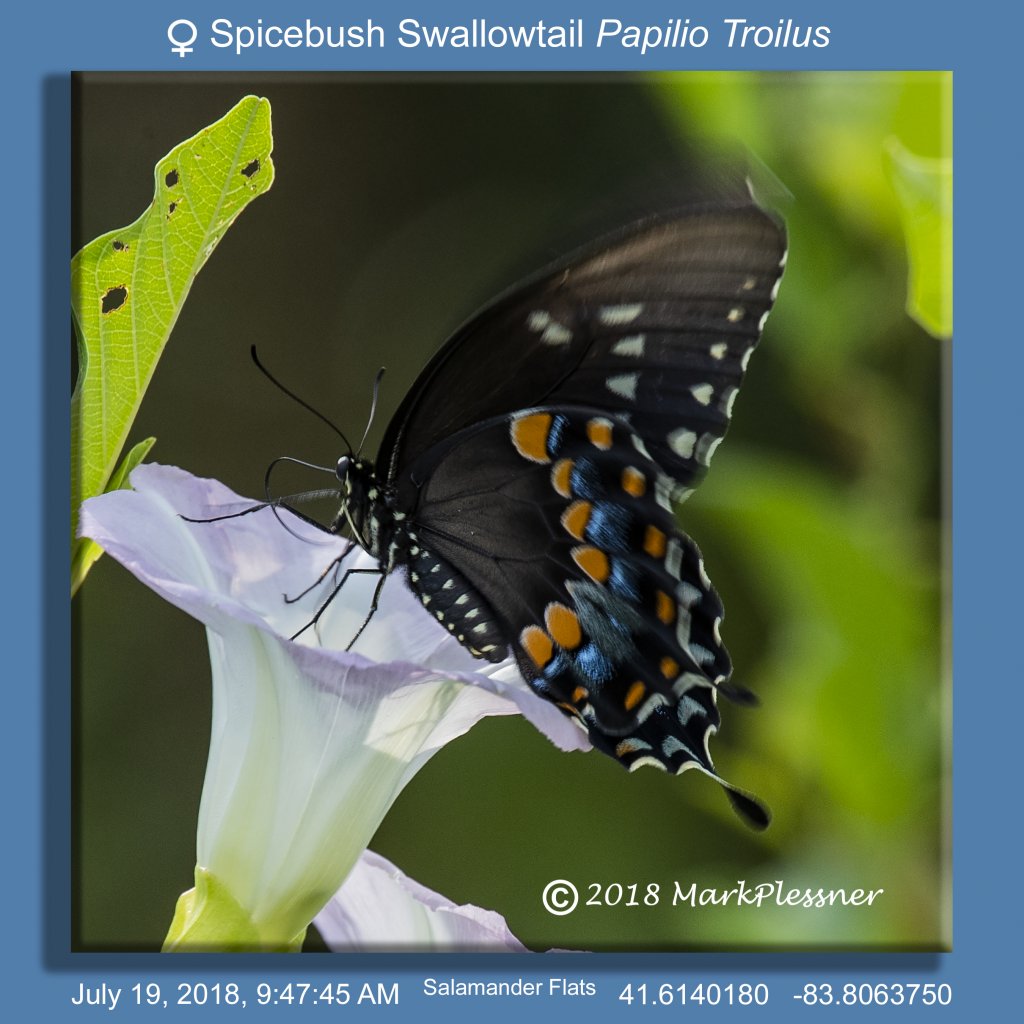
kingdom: Animalia
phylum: Arthropoda
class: Insecta
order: Lepidoptera
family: Papilionidae
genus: Pterourus
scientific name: Pterourus troilus
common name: Spicebush Swallowtail
